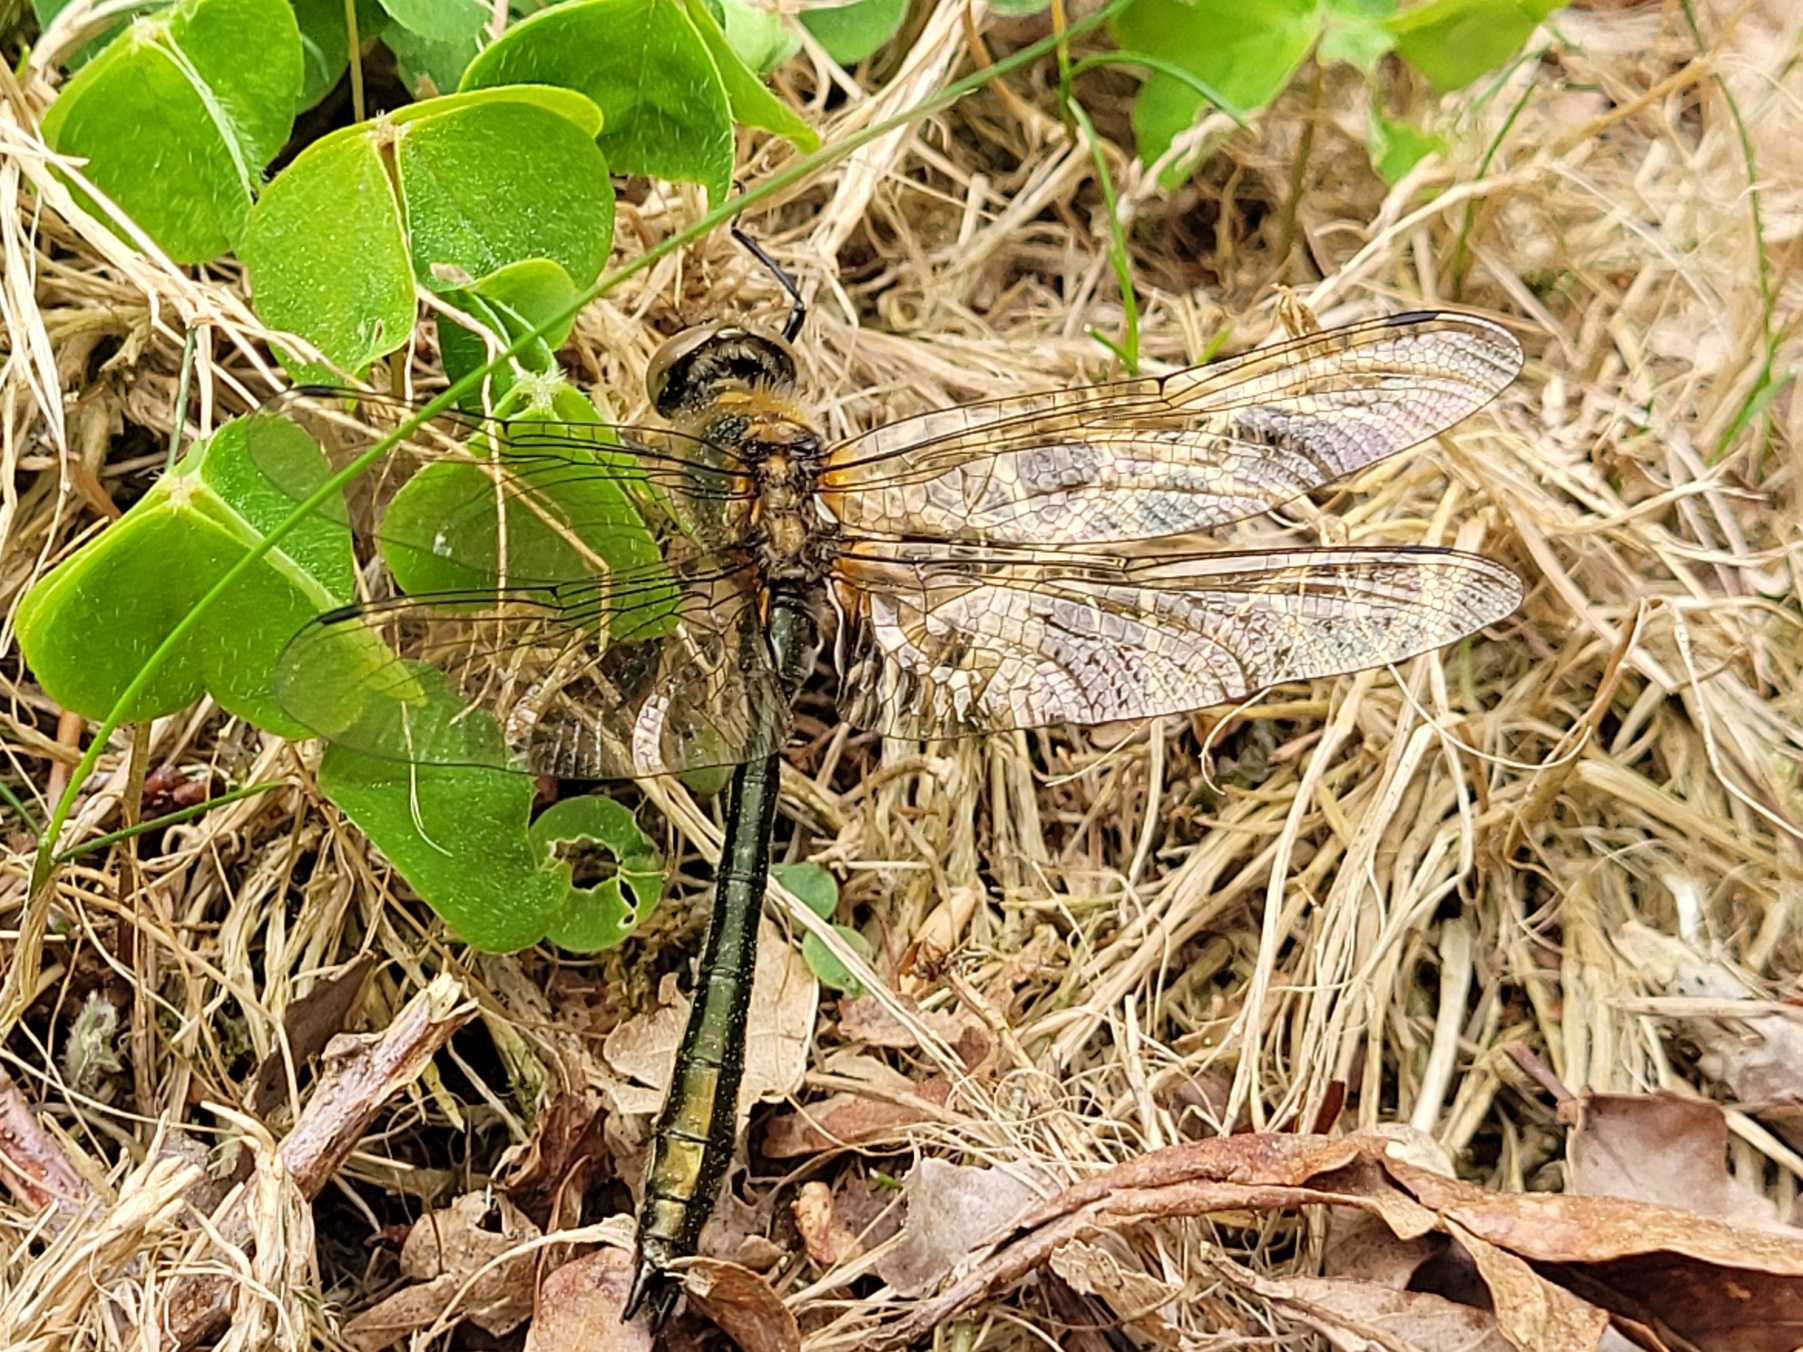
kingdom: Animalia
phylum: Arthropoda
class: Insecta
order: Odonata
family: Corduliidae
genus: Cordulia
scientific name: Cordulia aenea
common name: Grøn smaragdlibel
